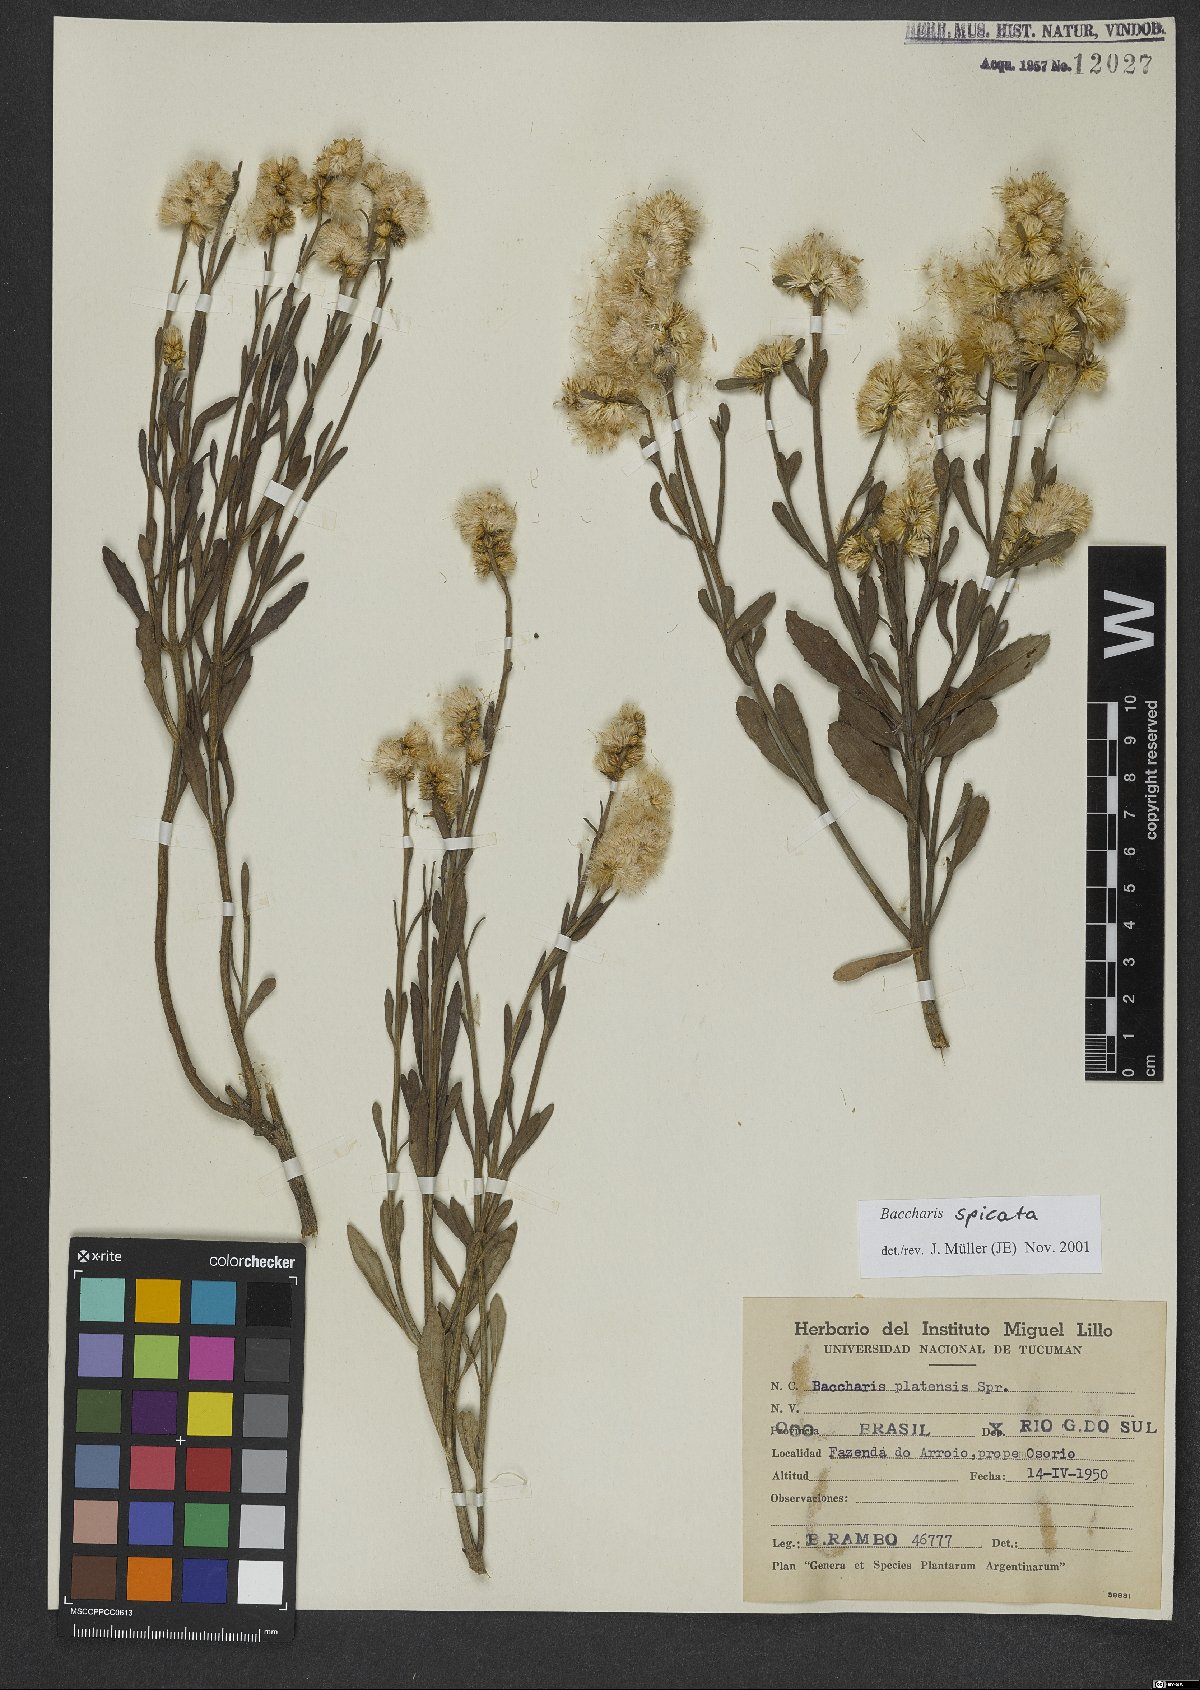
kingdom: Plantae
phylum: Tracheophyta
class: Magnoliopsida
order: Asterales
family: Asteraceae
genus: Baccharis
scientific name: Baccharis spicata
